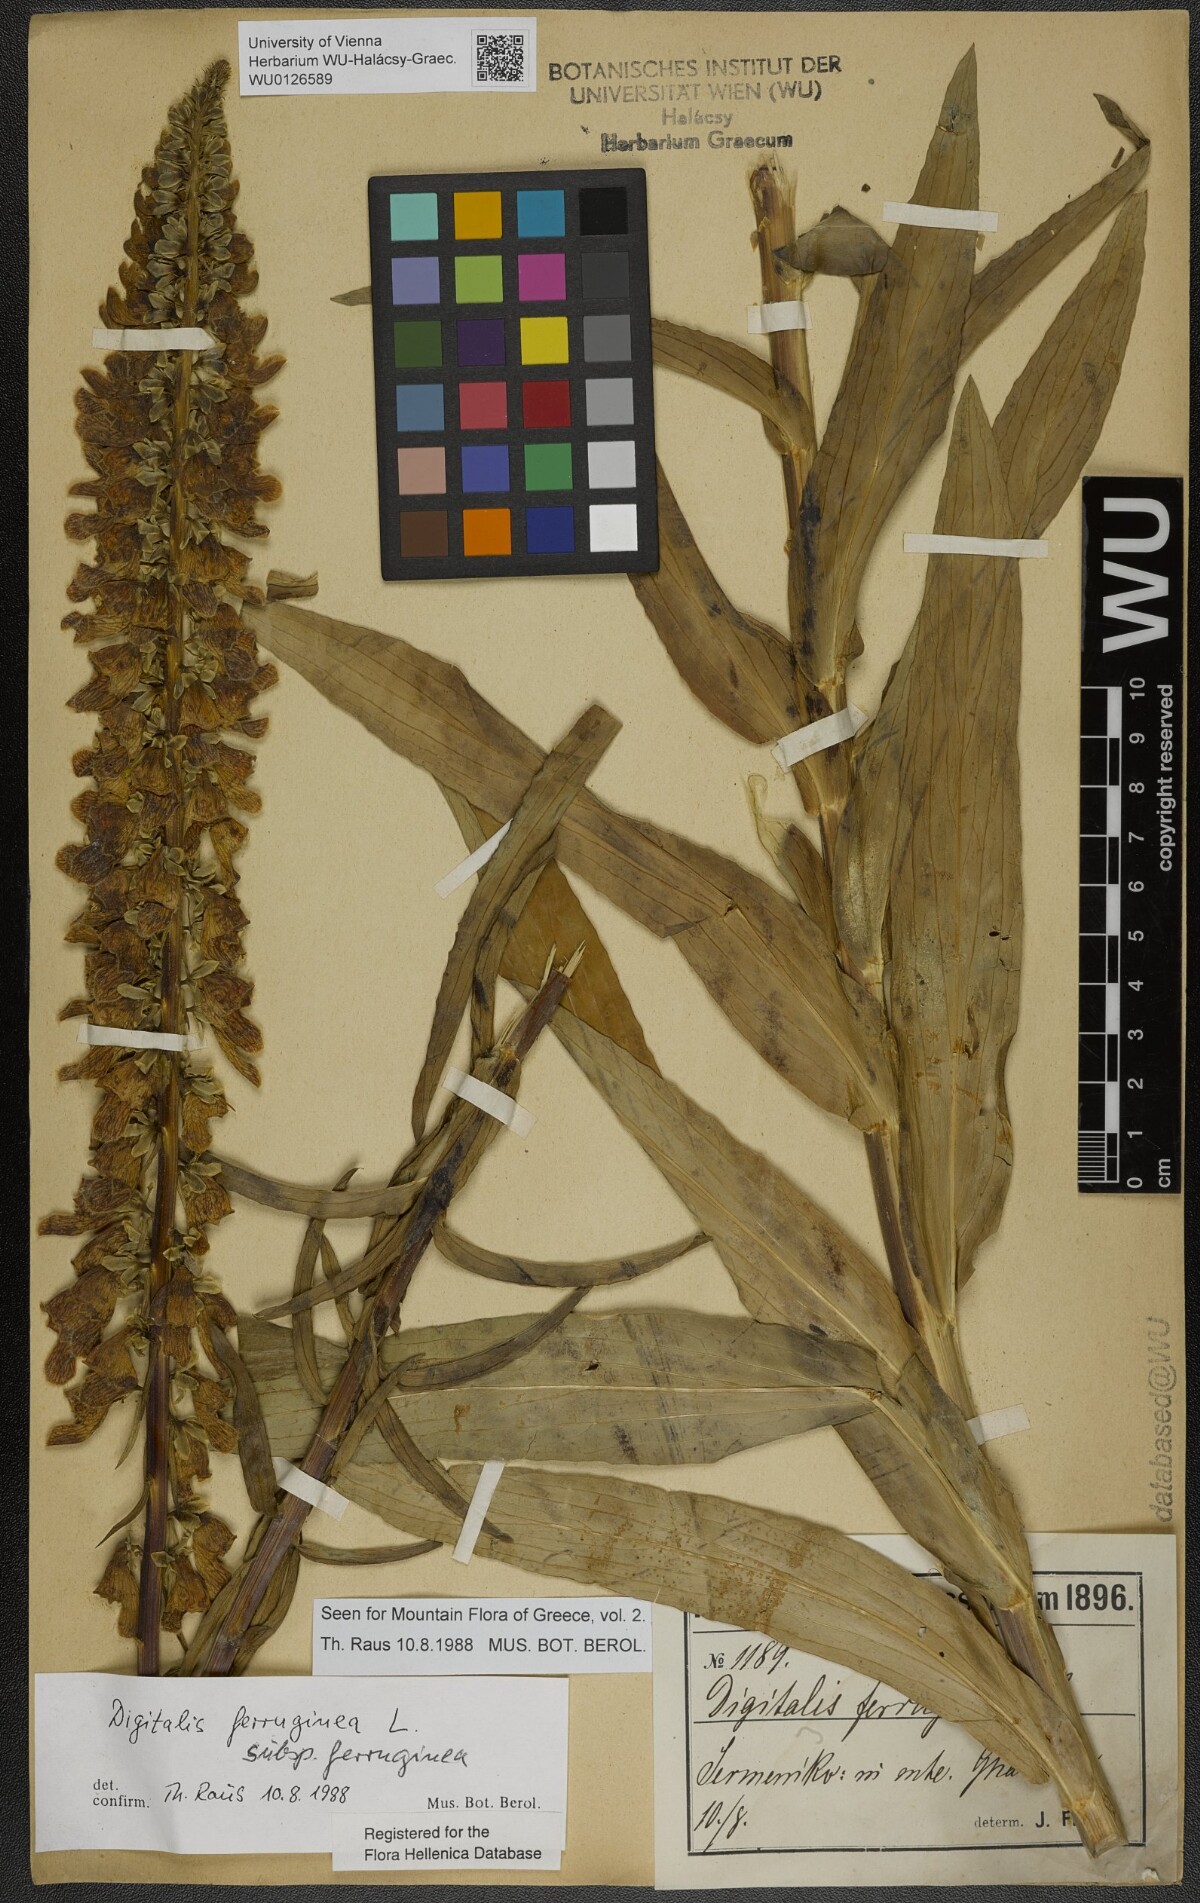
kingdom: Plantae
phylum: Tracheophyta
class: Magnoliopsida
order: Lamiales
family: Plantaginaceae
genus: Digitalis
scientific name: Digitalis ferruginea
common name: Rusty foxglove
